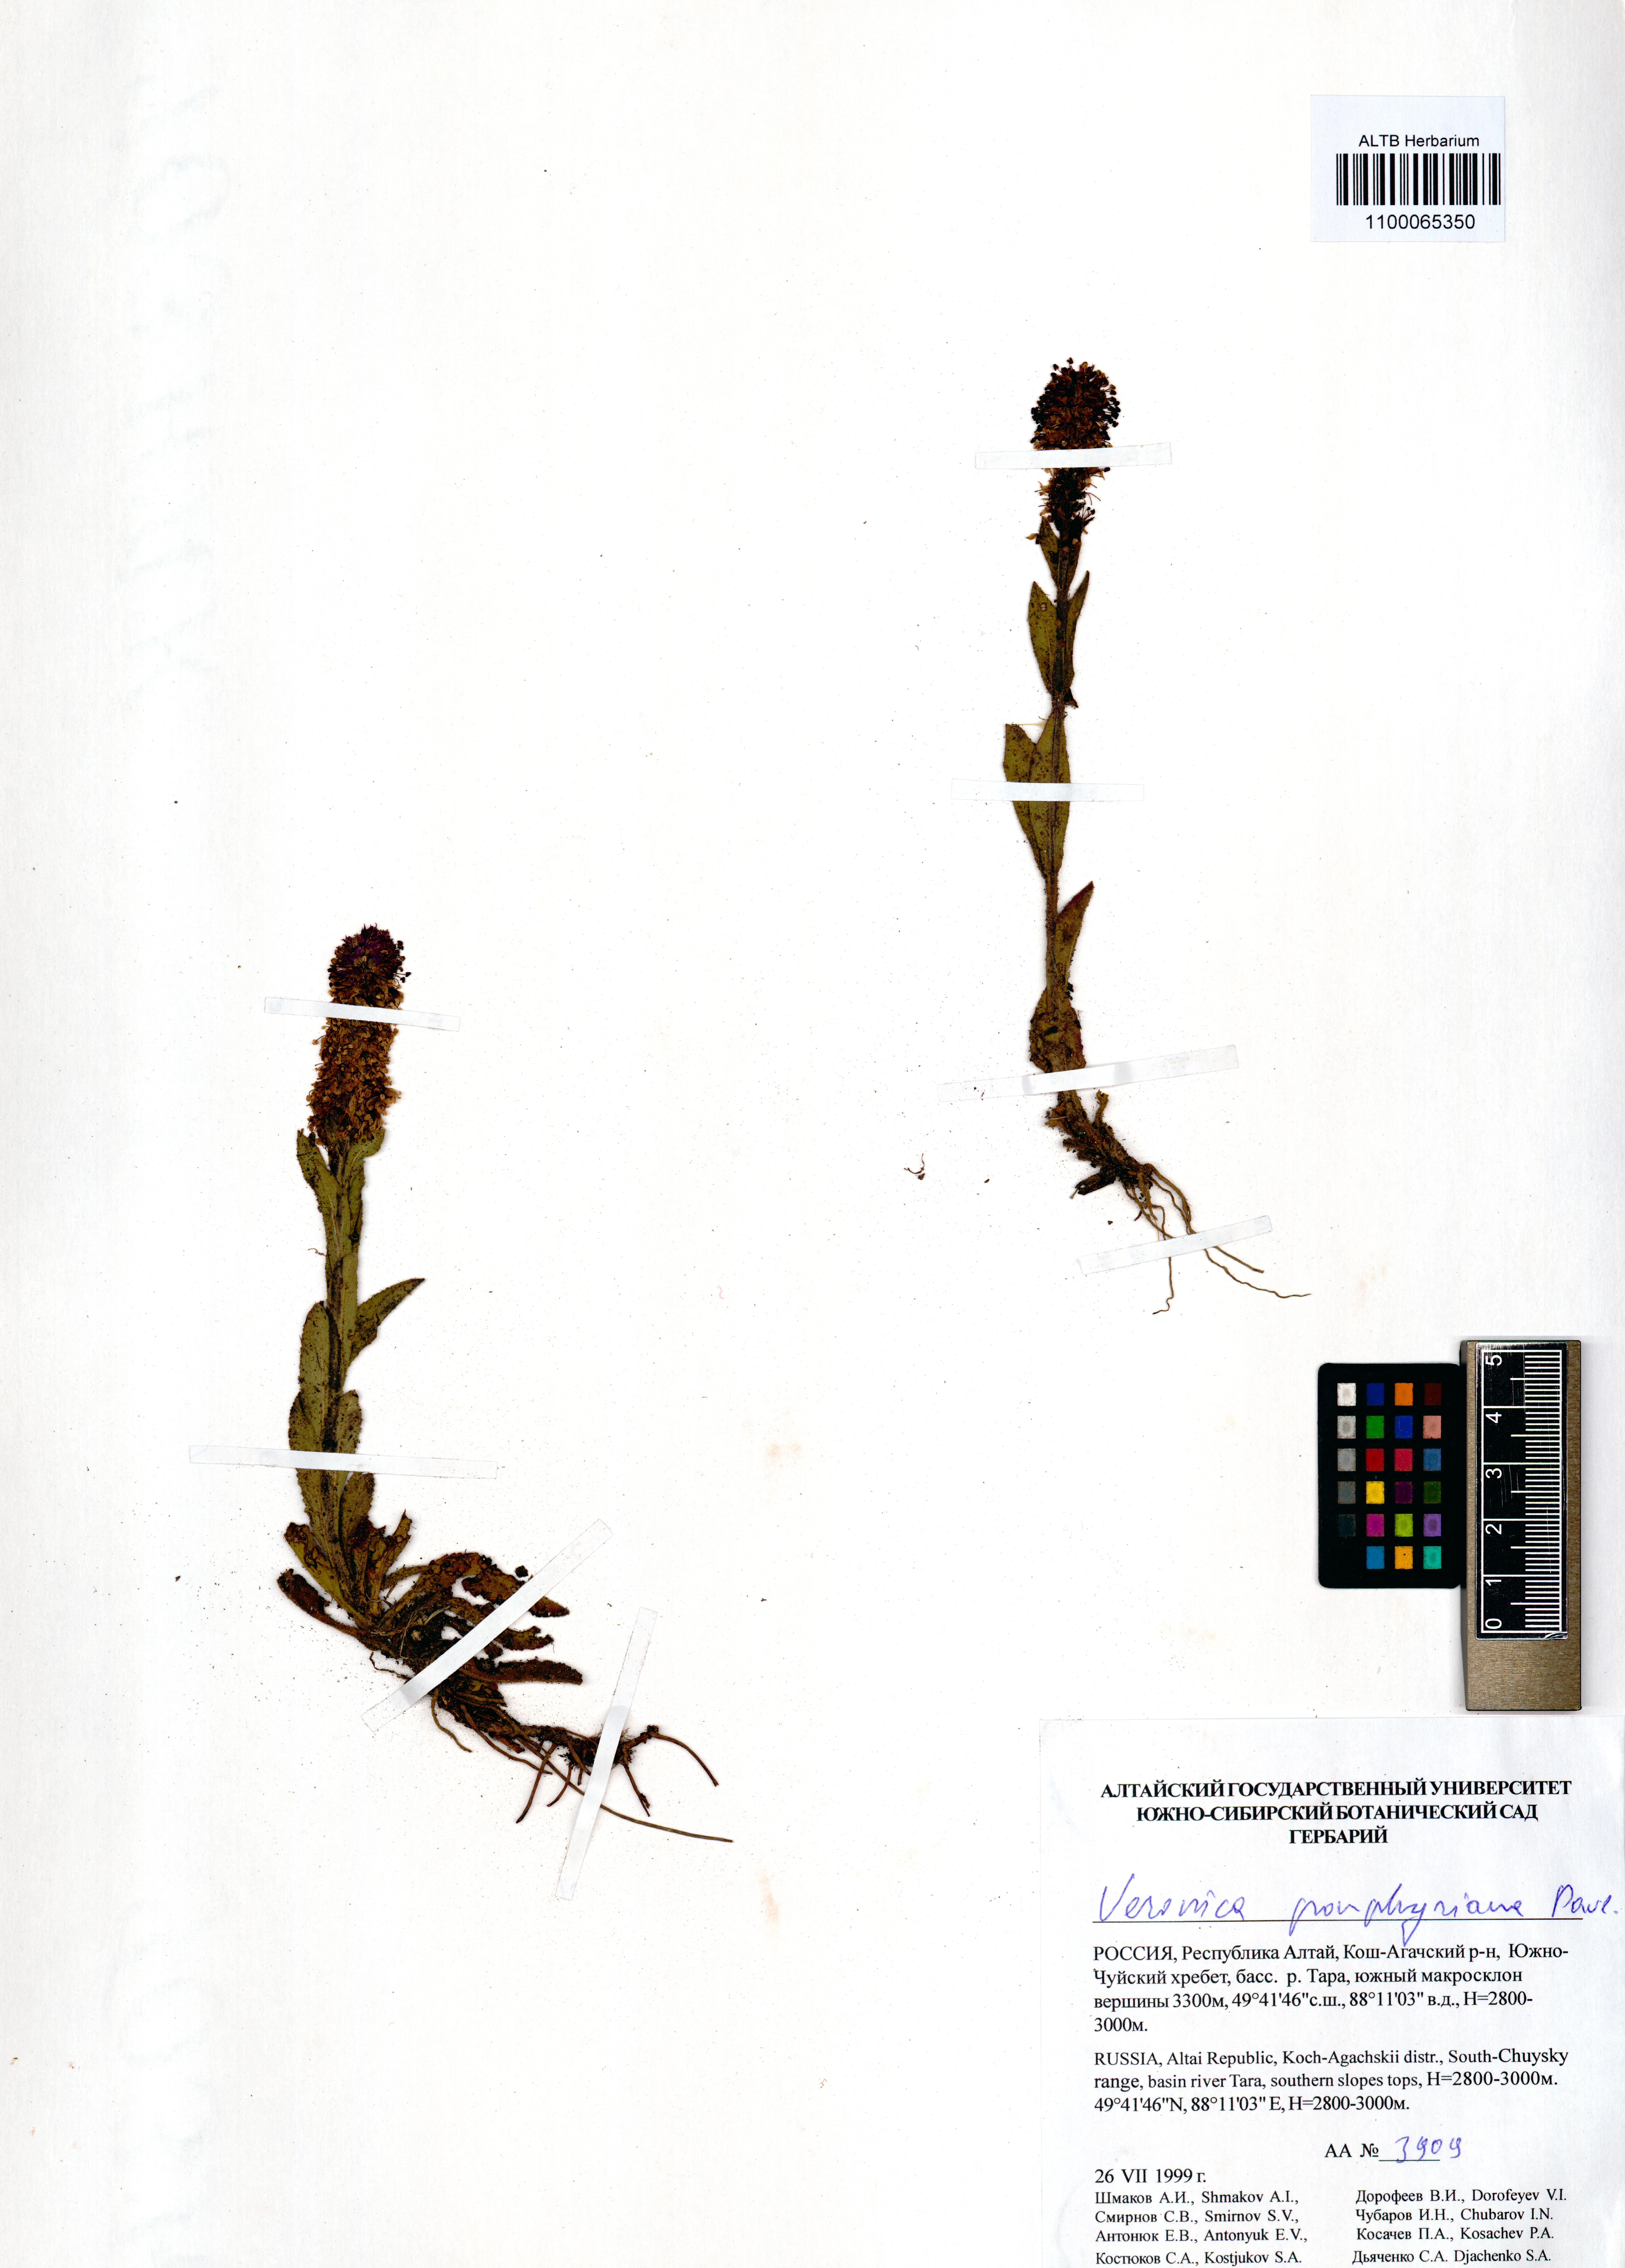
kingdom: Plantae
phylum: Tracheophyta
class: Magnoliopsida
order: Lamiales
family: Plantaginaceae
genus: Veronica
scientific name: Veronica porphyriana
